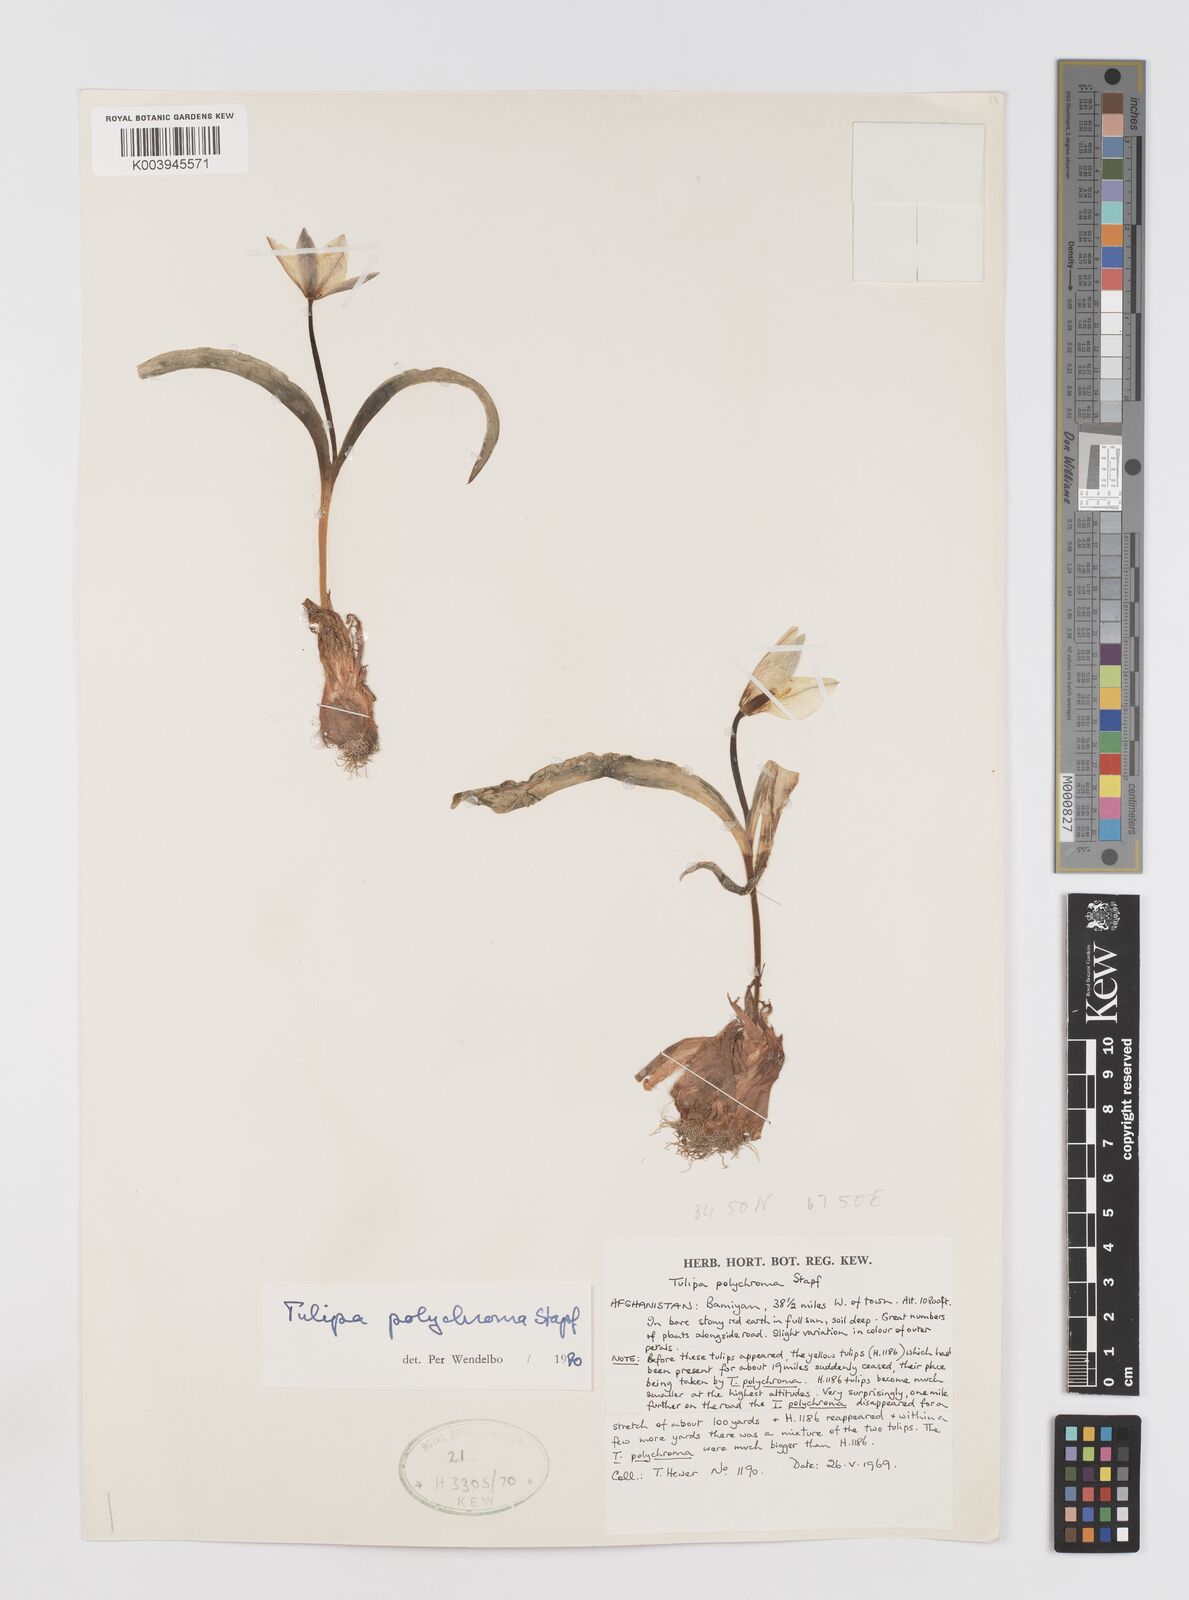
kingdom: Plantae
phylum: Tracheophyta
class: Liliopsida
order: Liliales
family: Liliaceae
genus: Tulipa
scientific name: Tulipa biflora
